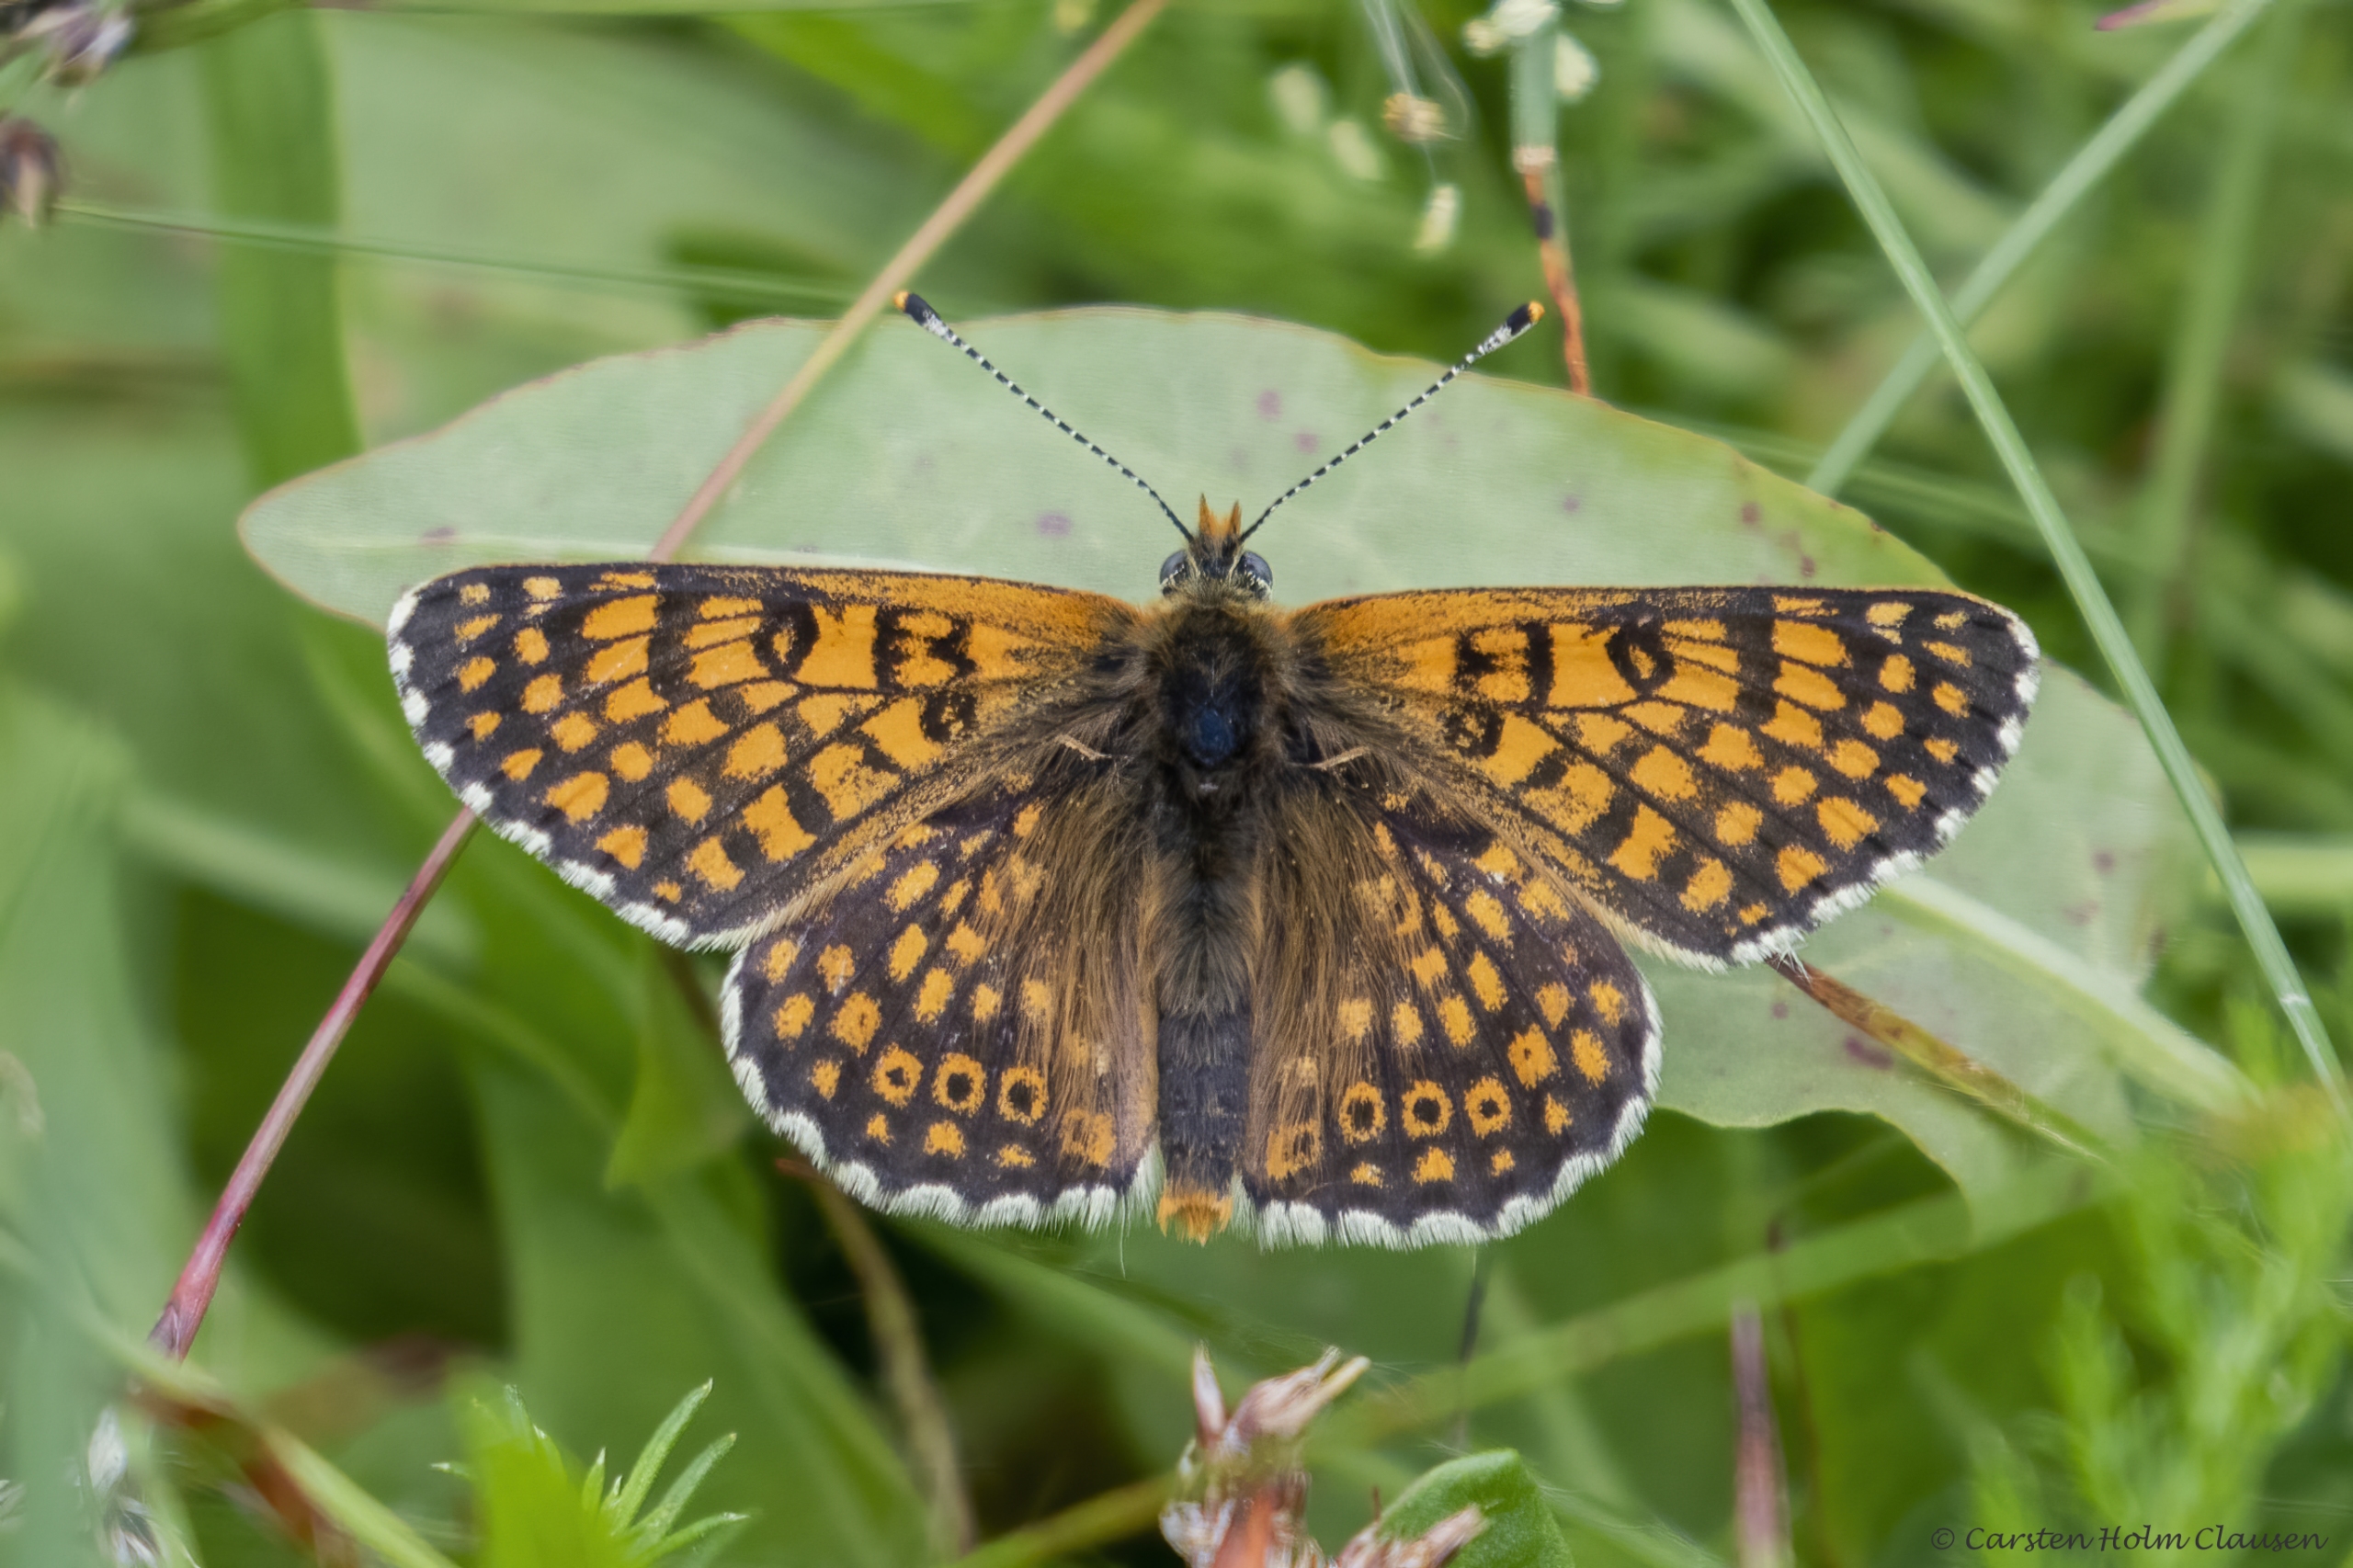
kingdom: Animalia
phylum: Arthropoda
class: Insecta
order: Lepidoptera
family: Nymphalidae
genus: Melitaea
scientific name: Melitaea cinxia
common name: Okkergul pletvinge
